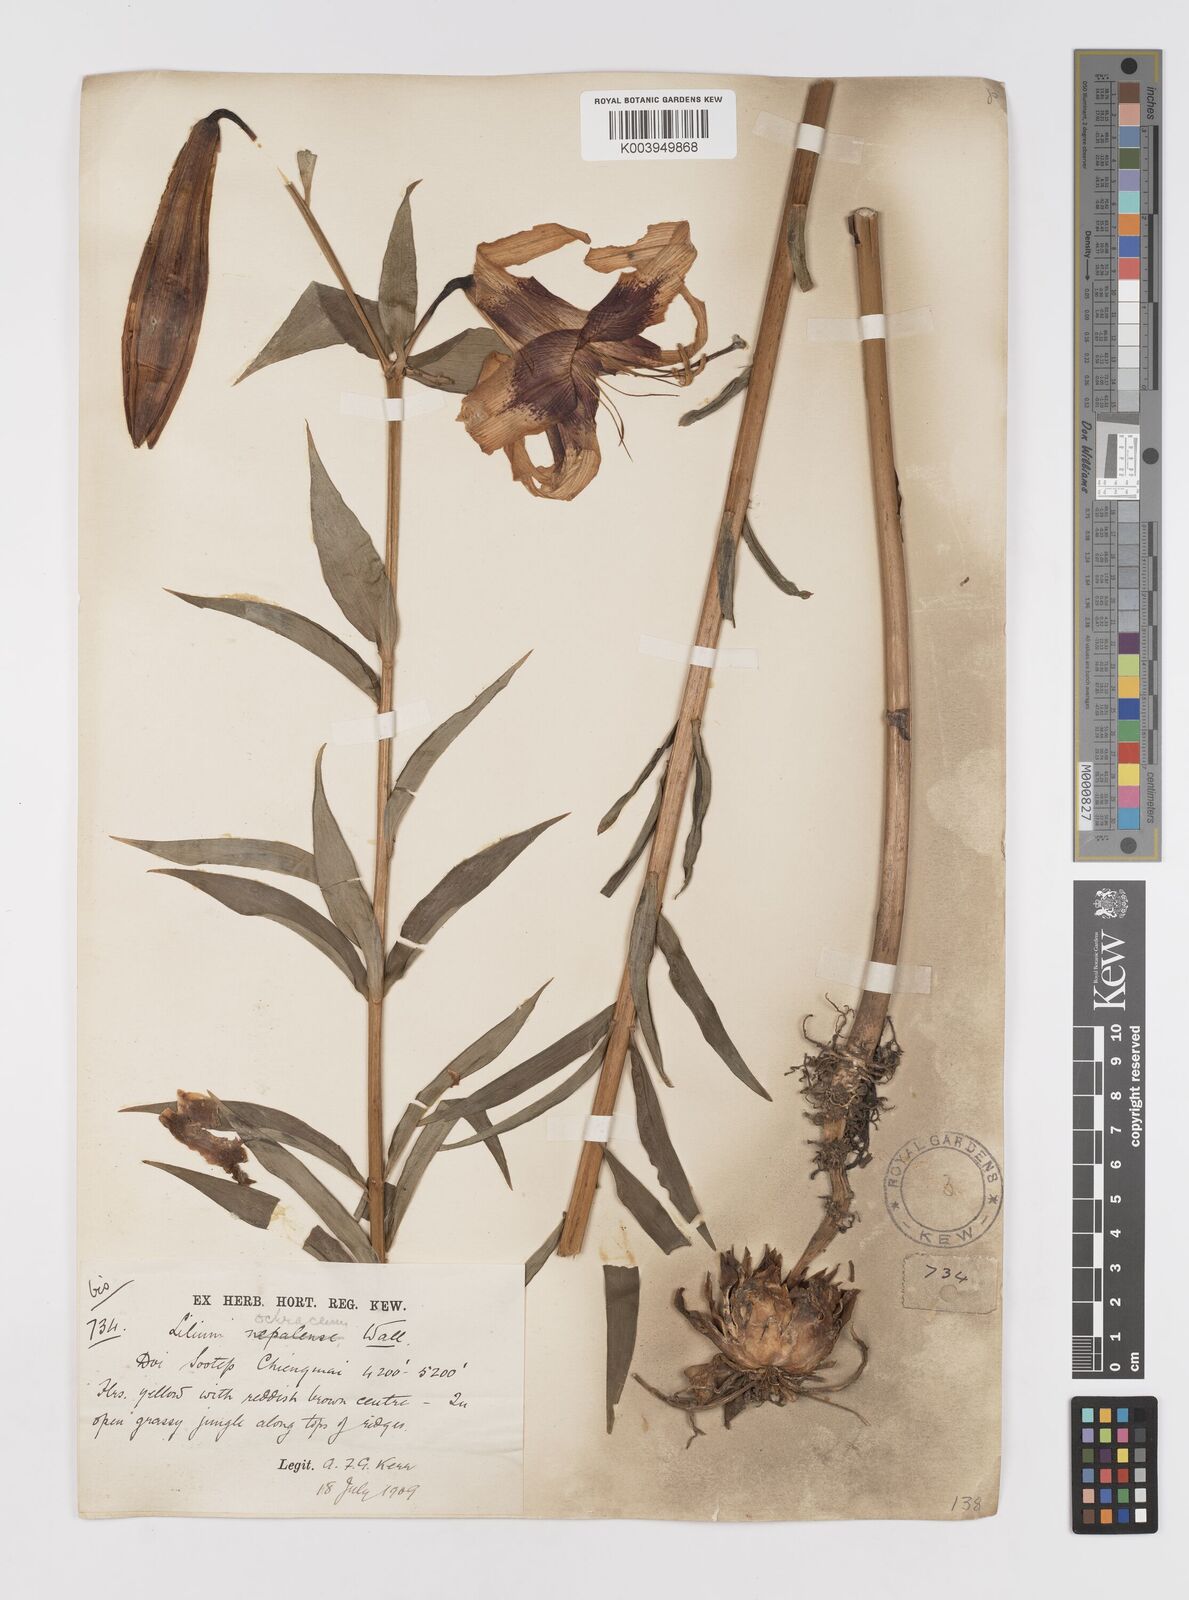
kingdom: Plantae
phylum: Tracheophyta
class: Liliopsida
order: Liliales
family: Liliaceae
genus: Lilium
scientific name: Lilium primulinum
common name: Ochre lily
